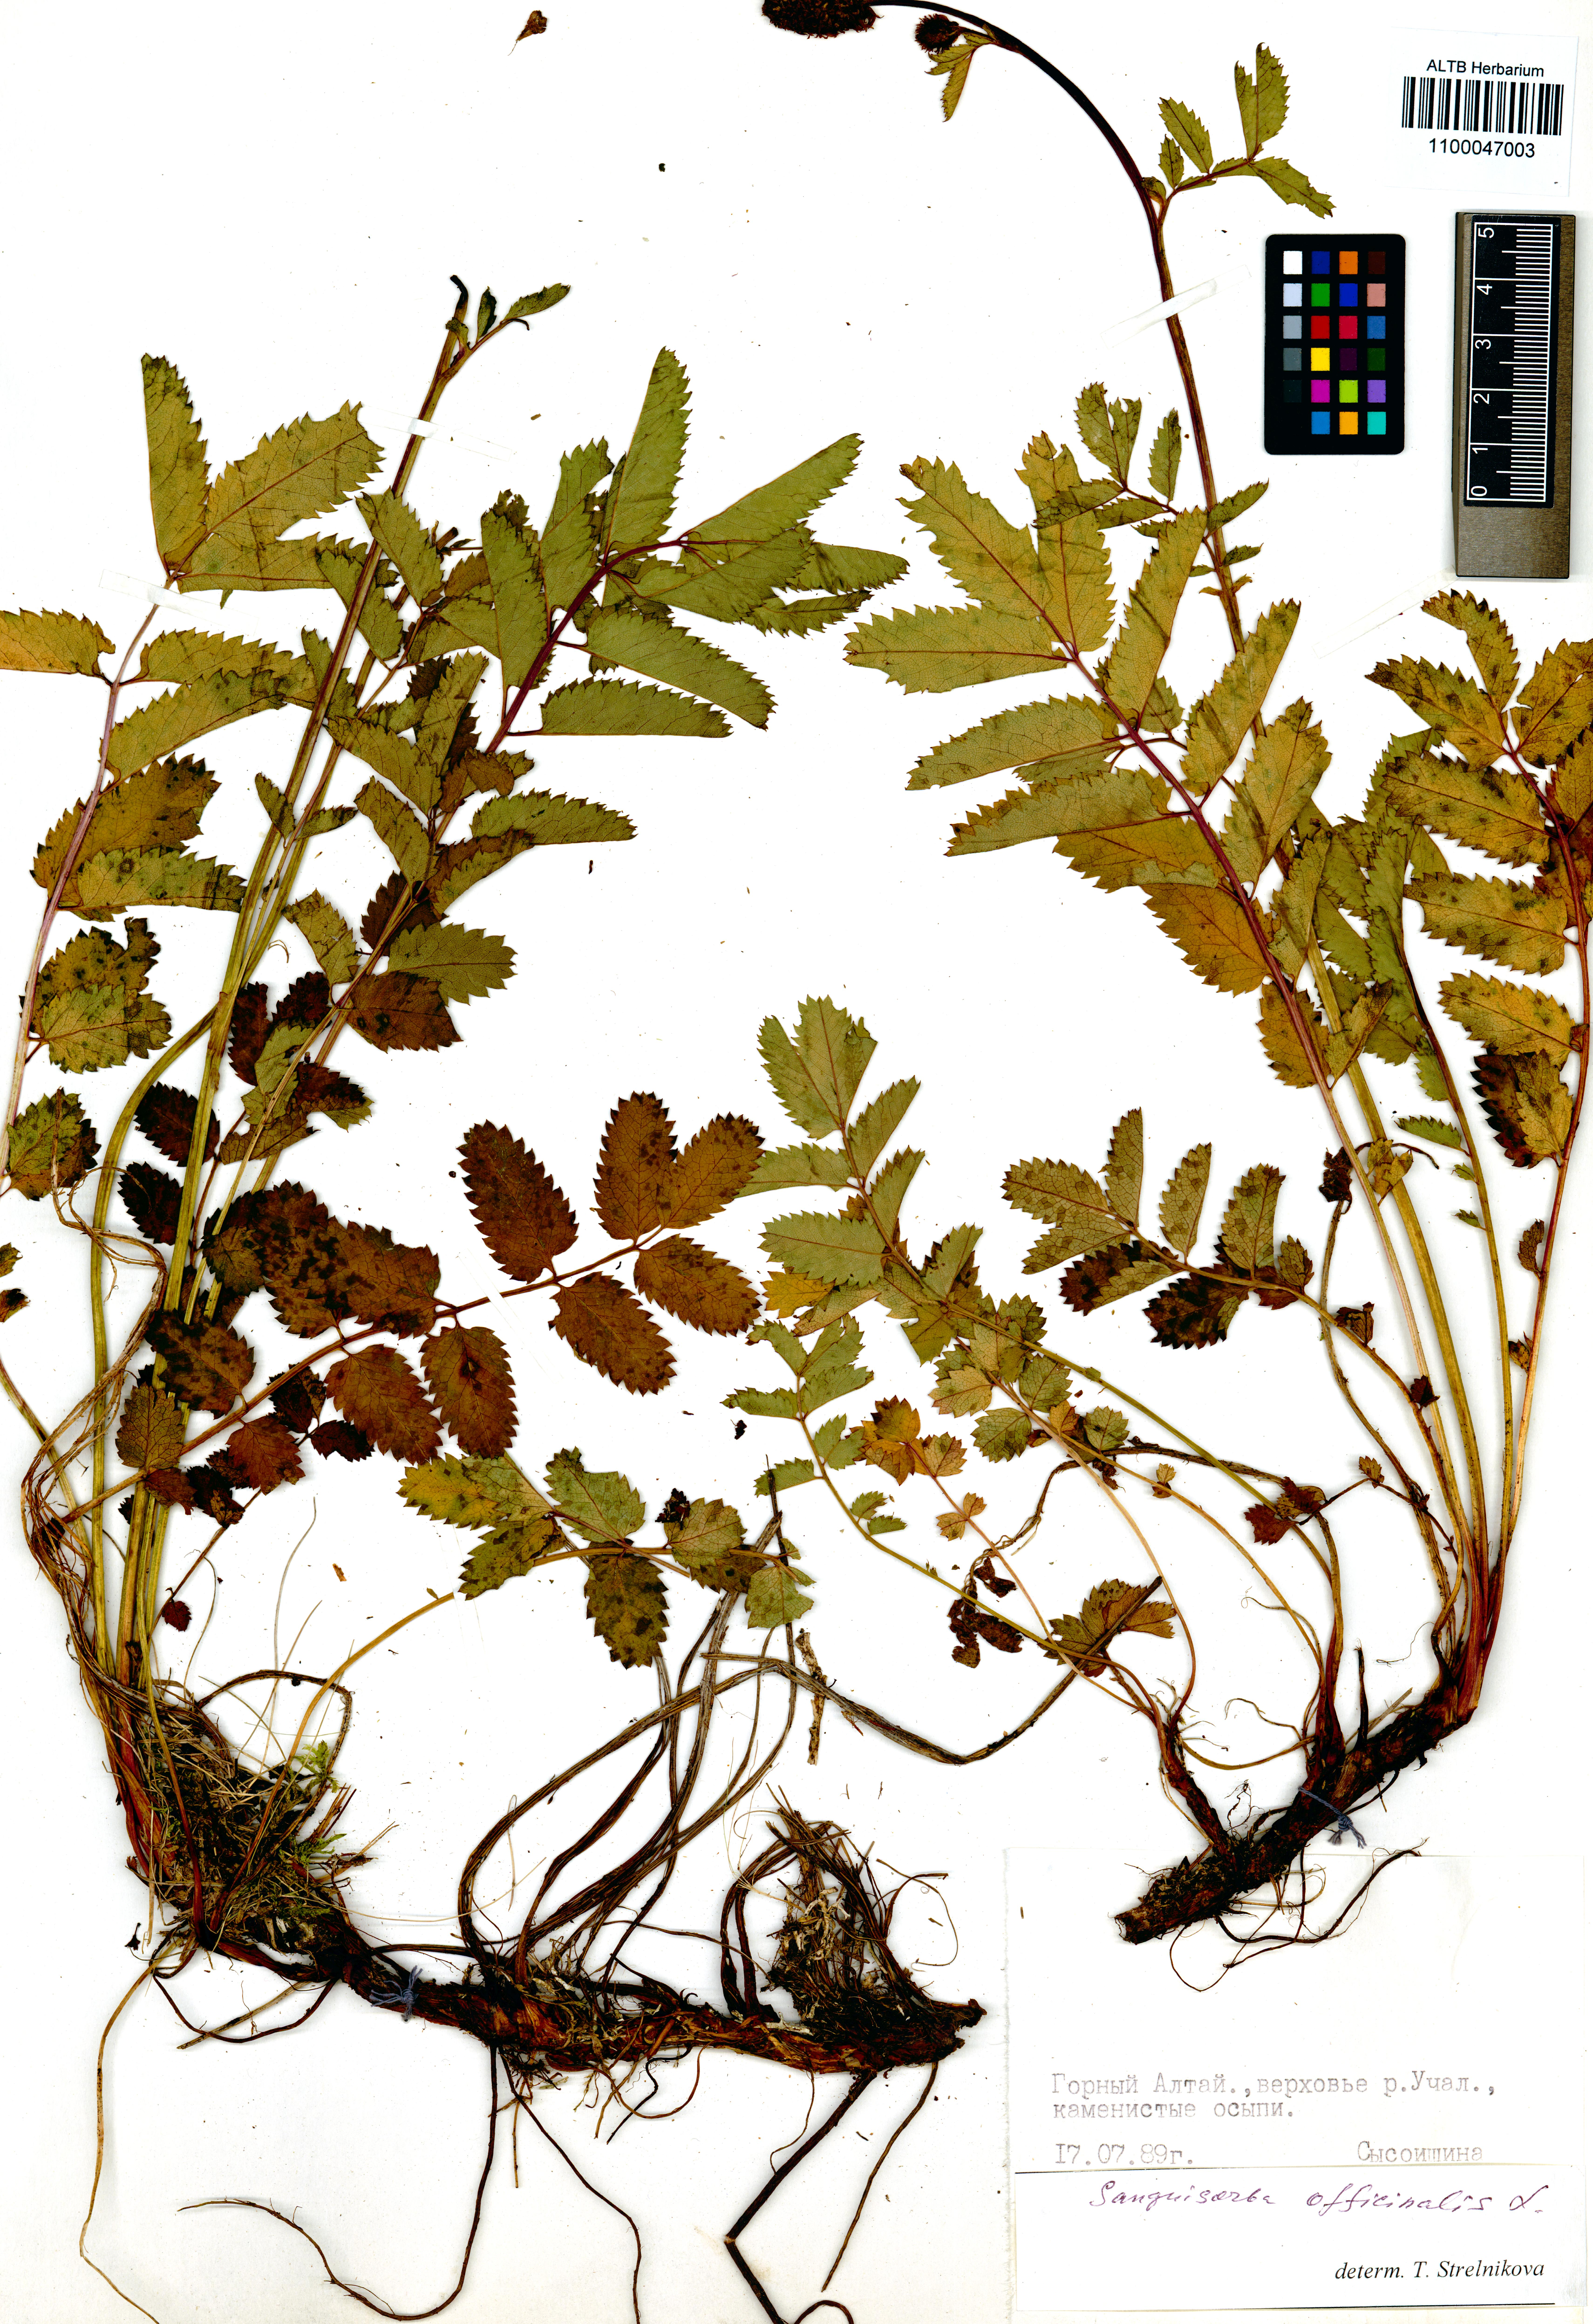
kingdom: Plantae
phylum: Tracheophyta
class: Magnoliopsida
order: Rosales
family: Rosaceae
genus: Sanguisorba
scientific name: Sanguisorba officinalis
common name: Great burnet
